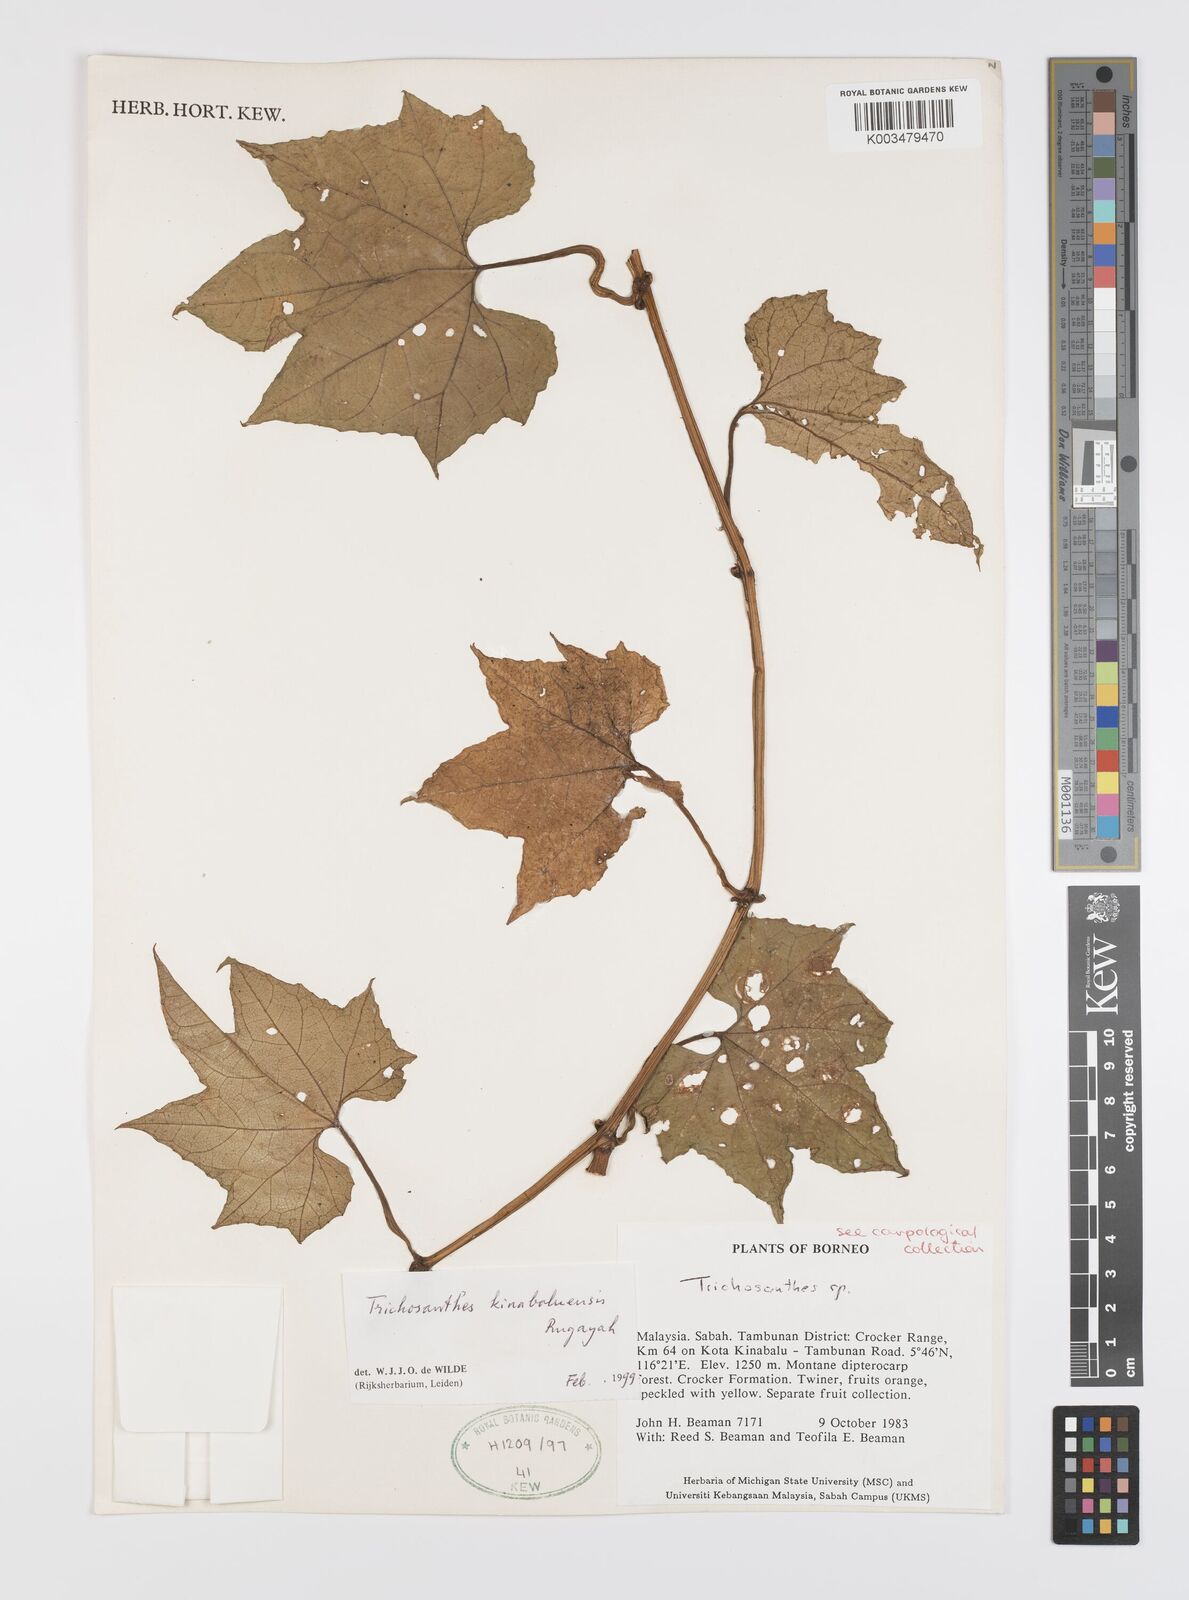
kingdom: Plantae
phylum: Tracheophyta
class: Magnoliopsida
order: Cucurbitales
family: Cucurbitaceae
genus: Trichosanthes
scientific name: Trichosanthes kinabaluensis
